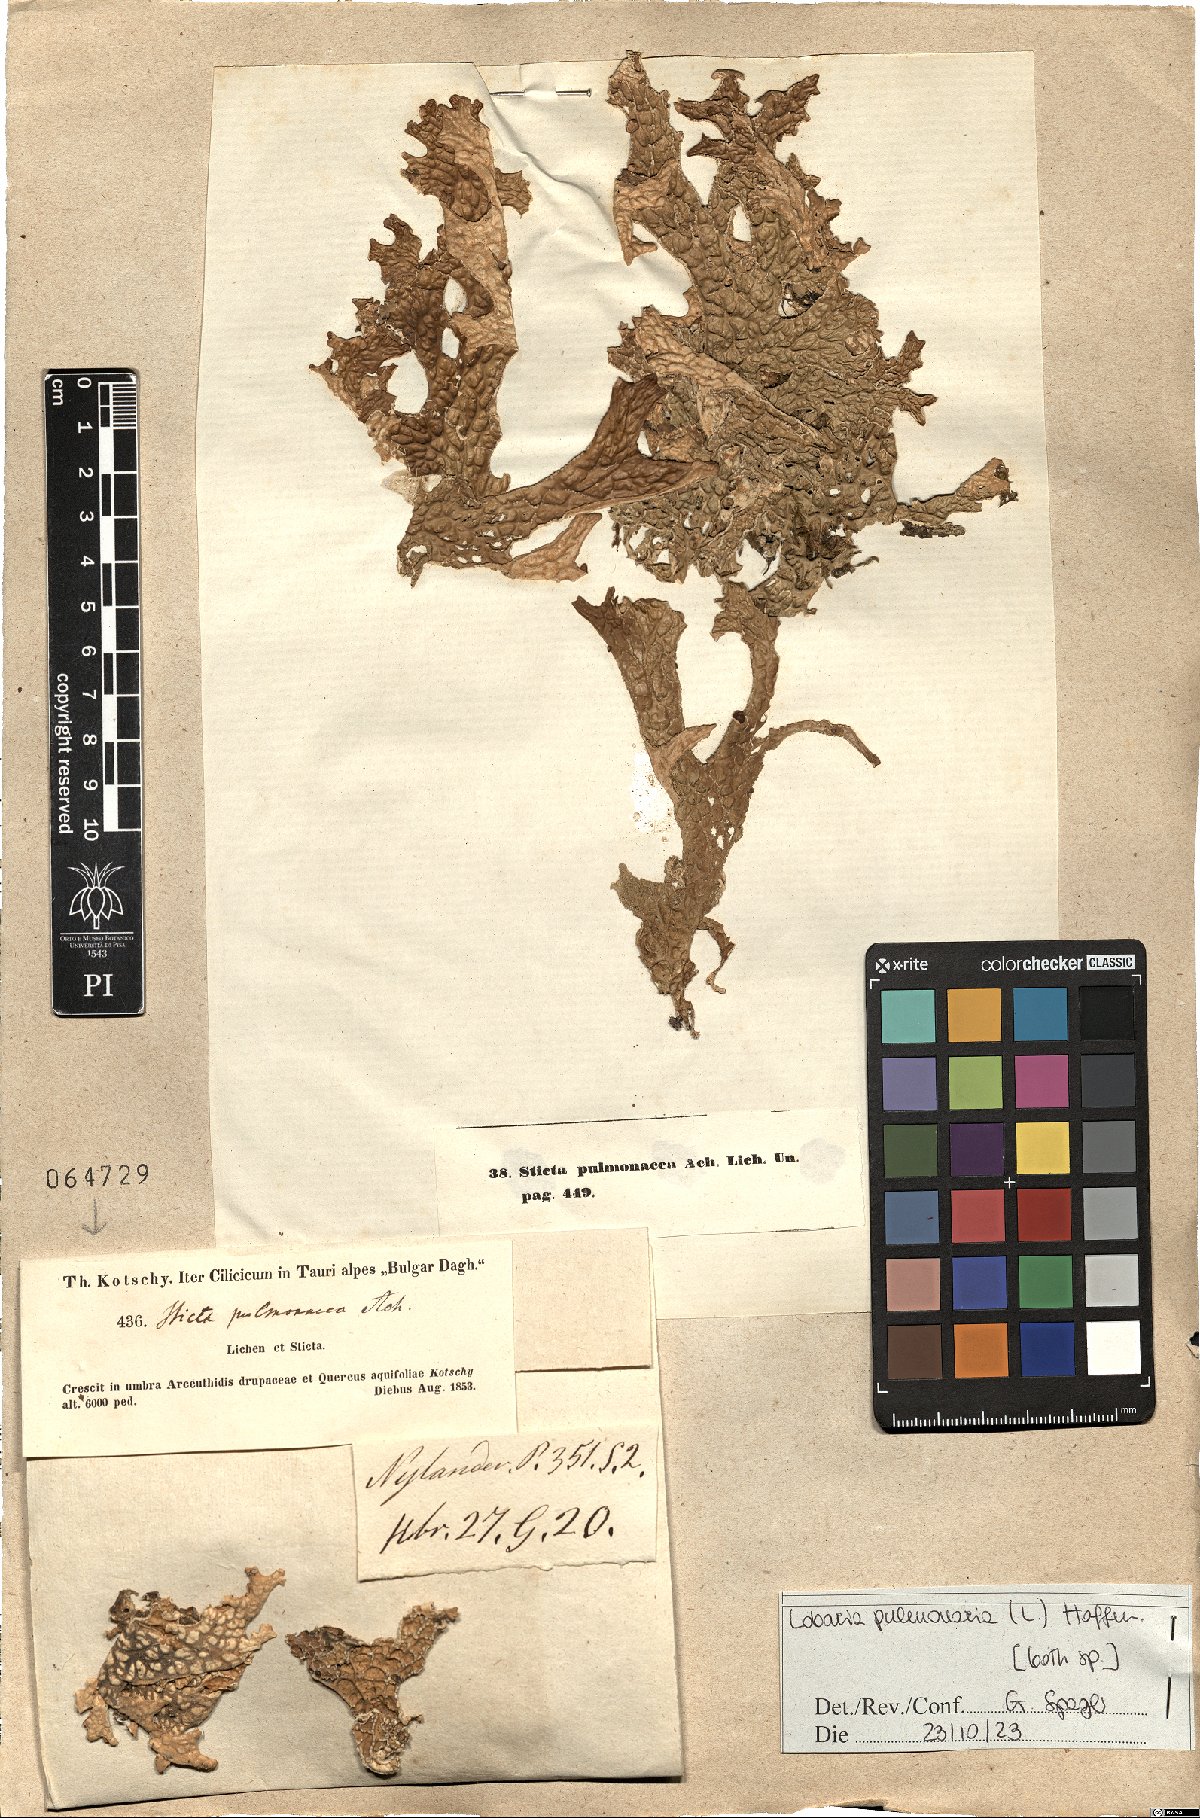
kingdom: Fungi
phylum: Ascomycota
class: Lecanoromycetes
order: Peltigerales
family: Lobariaceae
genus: Lobaria
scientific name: Lobaria pulmonaria
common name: Lungwort
